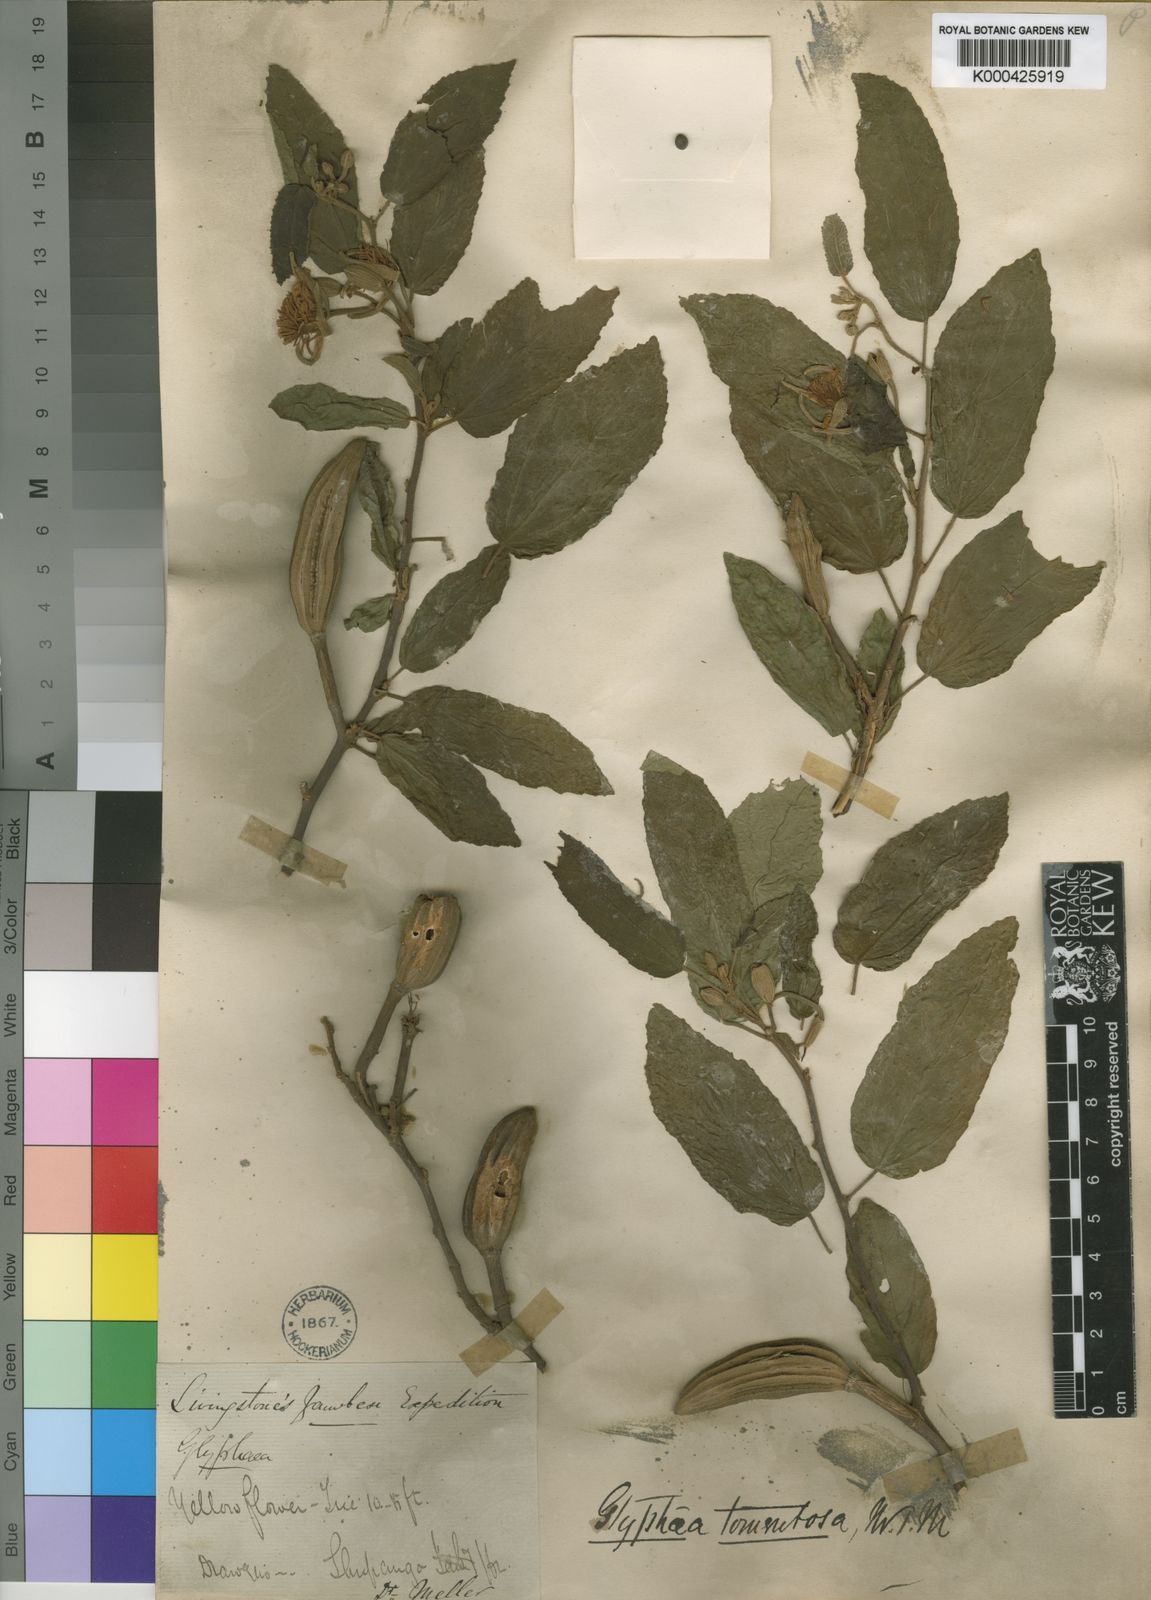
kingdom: Plantae
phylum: Tracheophyta
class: Magnoliopsida
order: Malvales
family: Malvaceae
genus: Glyphaea
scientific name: Glyphaea tomentosa
